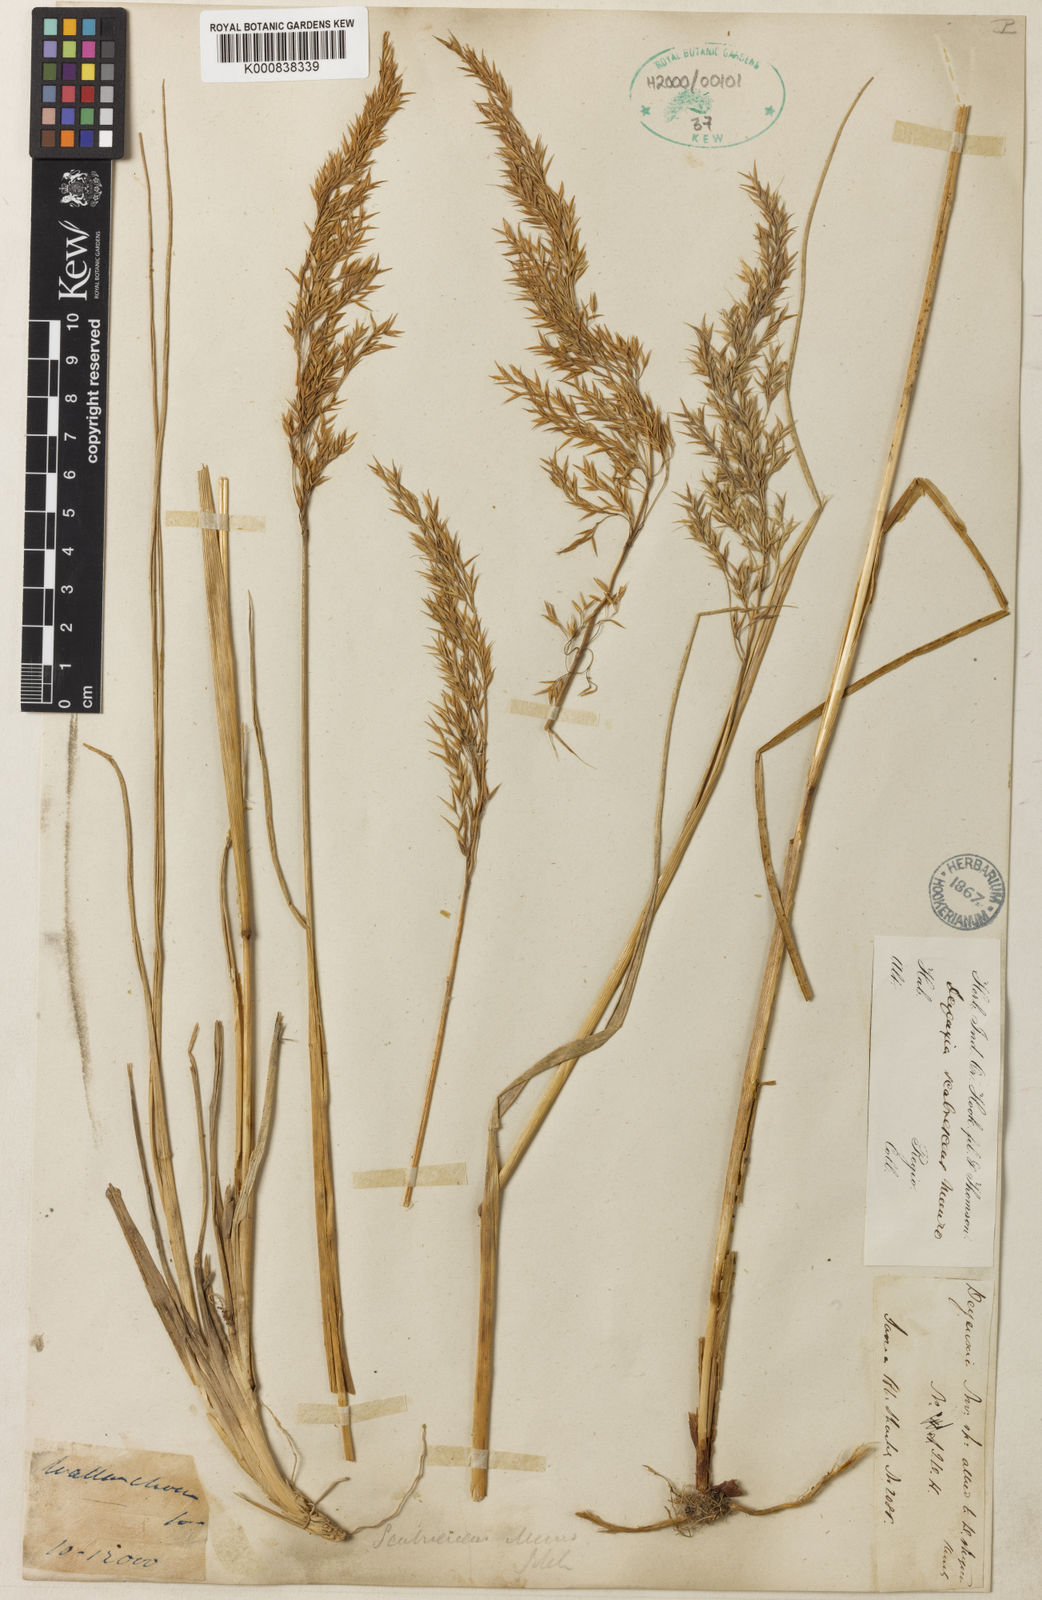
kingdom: Plantae
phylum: Tracheophyta
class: Liliopsida
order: Poales
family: Poaceae
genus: Calamagrostis
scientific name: Calamagrostis scabrescens
